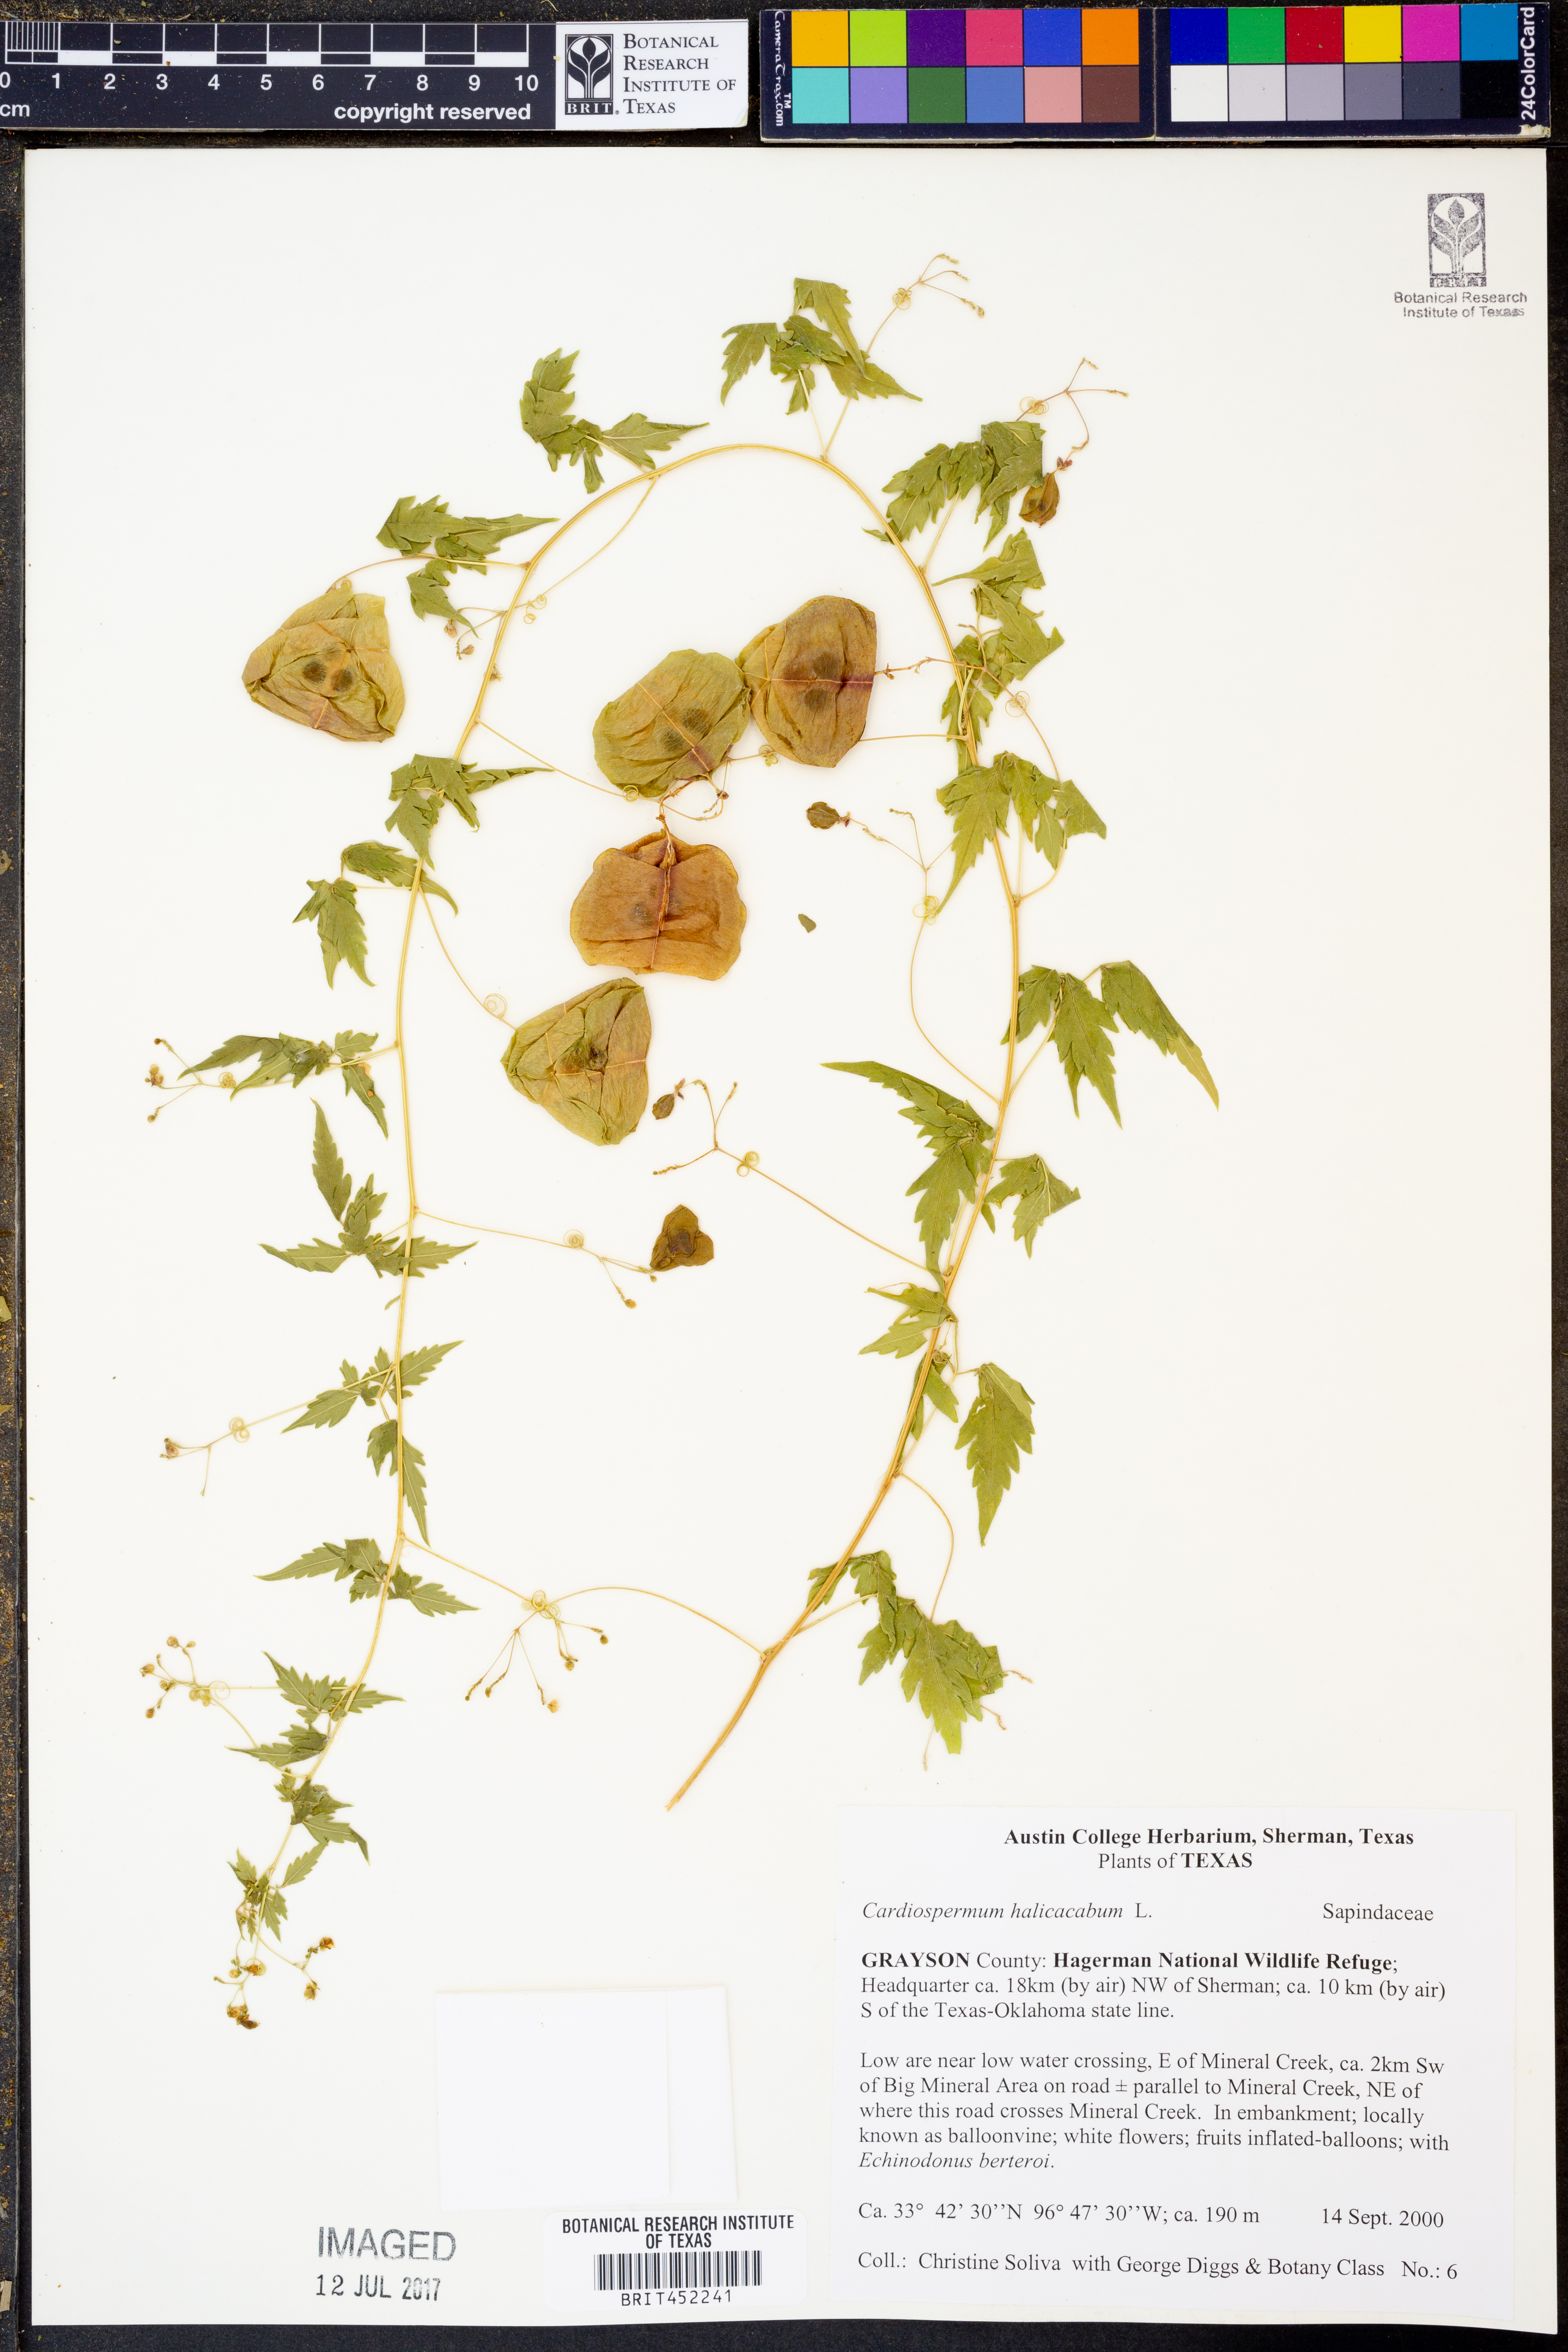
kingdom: Plantae
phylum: Tracheophyta
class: Magnoliopsida
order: Sapindales
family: Sapindaceae
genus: Cardiospermum
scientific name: Cardiospermum halicacabum
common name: Balloon vine
